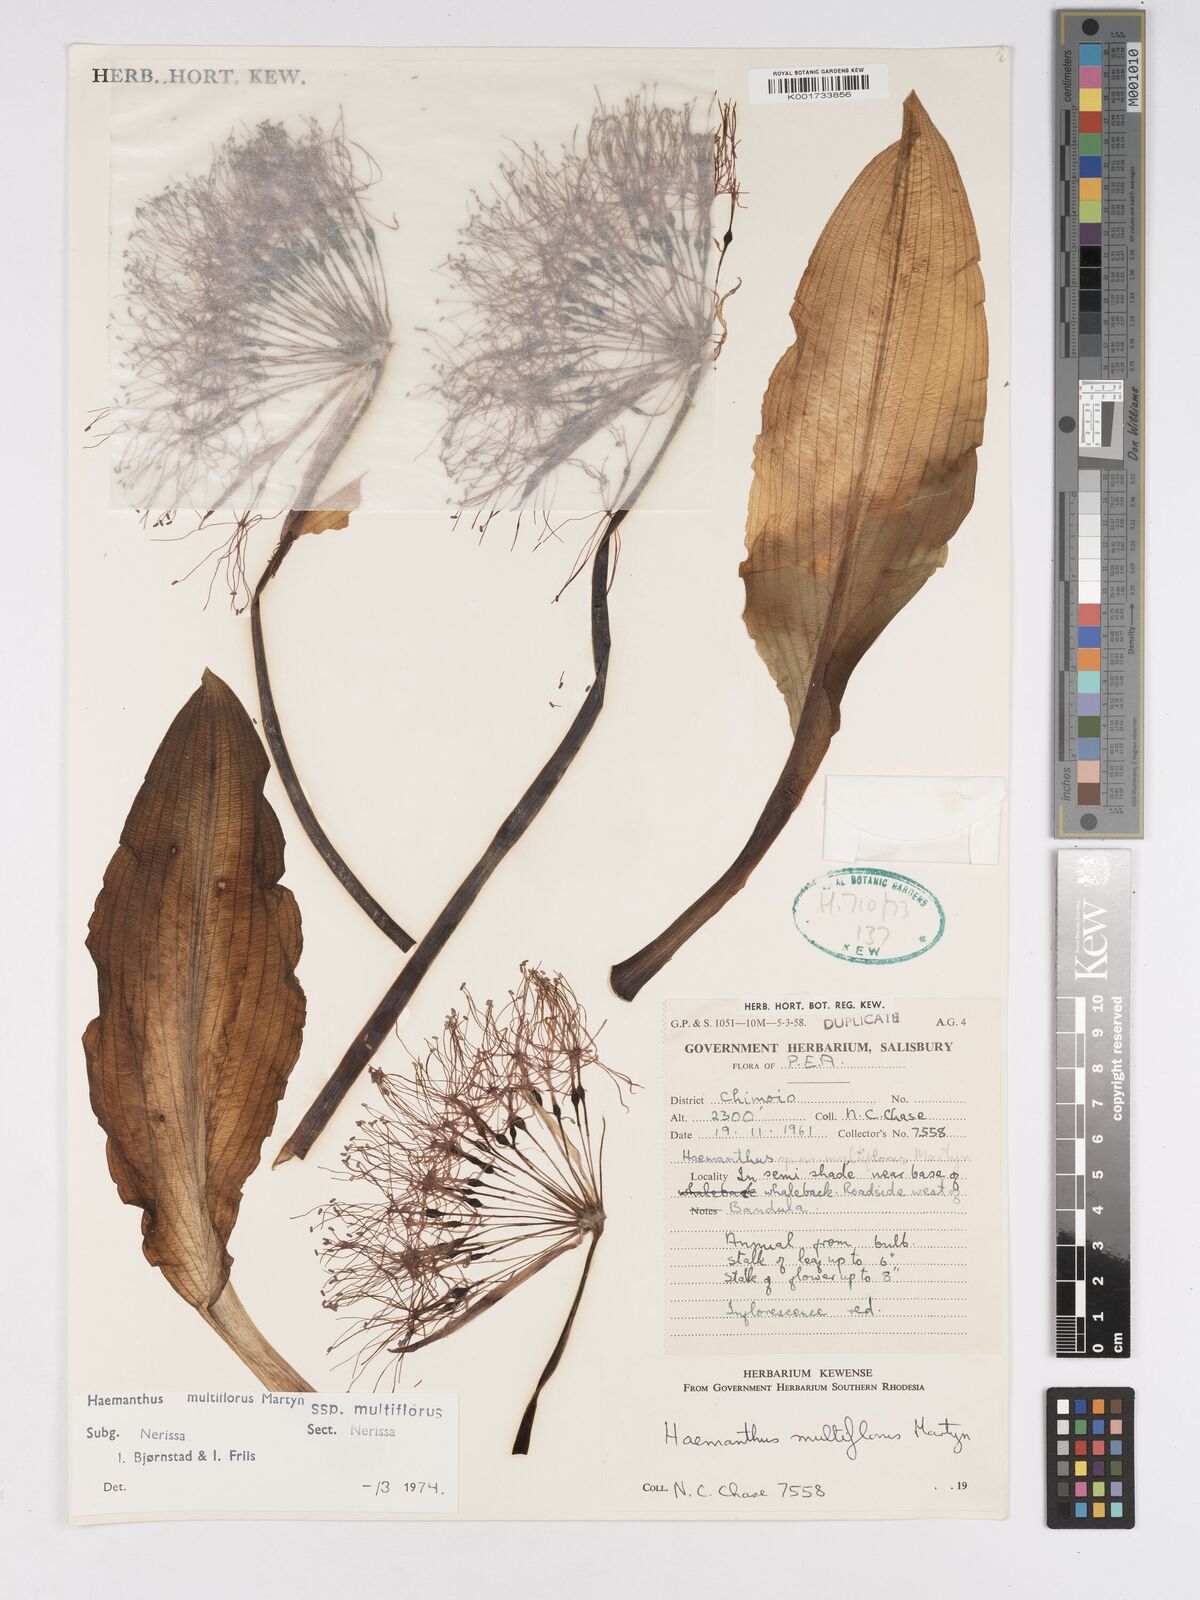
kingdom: Plantae
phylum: Tracheophyta
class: Liliopsida
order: Asparagales
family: Amaryllidaceae
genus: Scadoxus
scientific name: Scadoxus multiflorus
